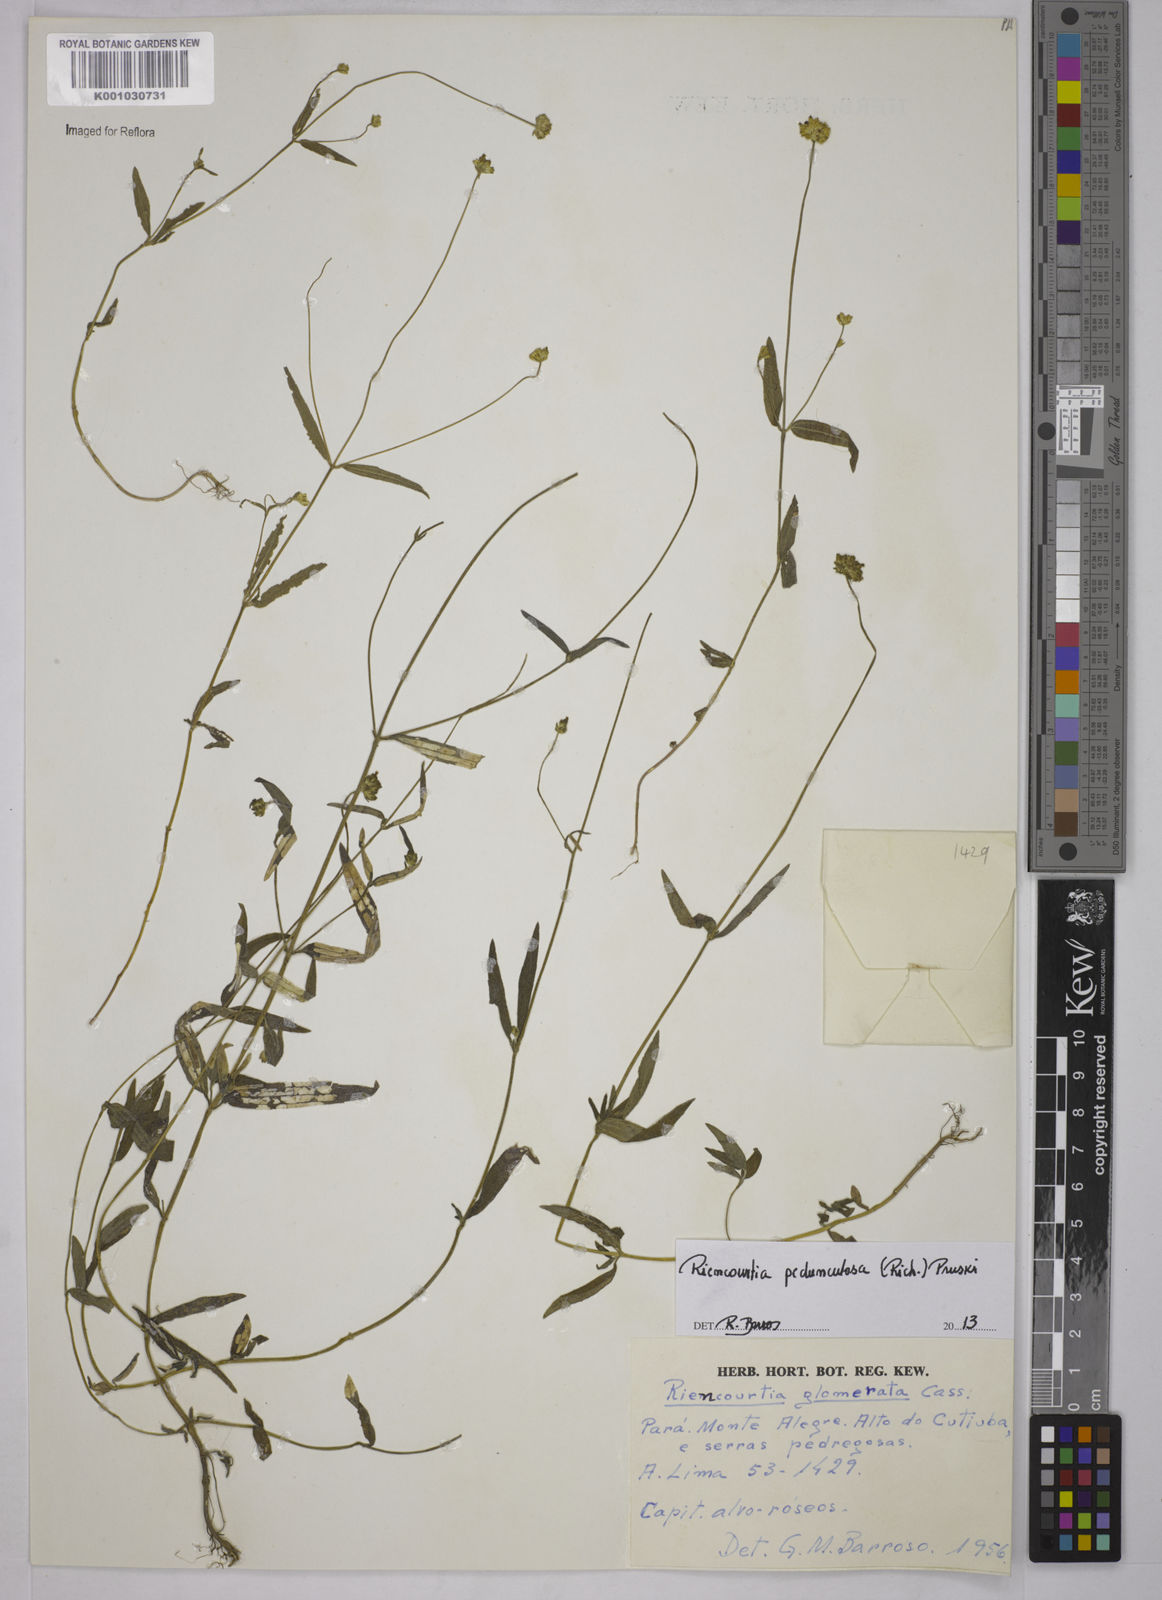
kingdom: Plantae
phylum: Tracheophyta
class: Magnoliopsida
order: Asterales
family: Asteraceae
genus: Riencourtia
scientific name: Riencourtia pedunculosa
